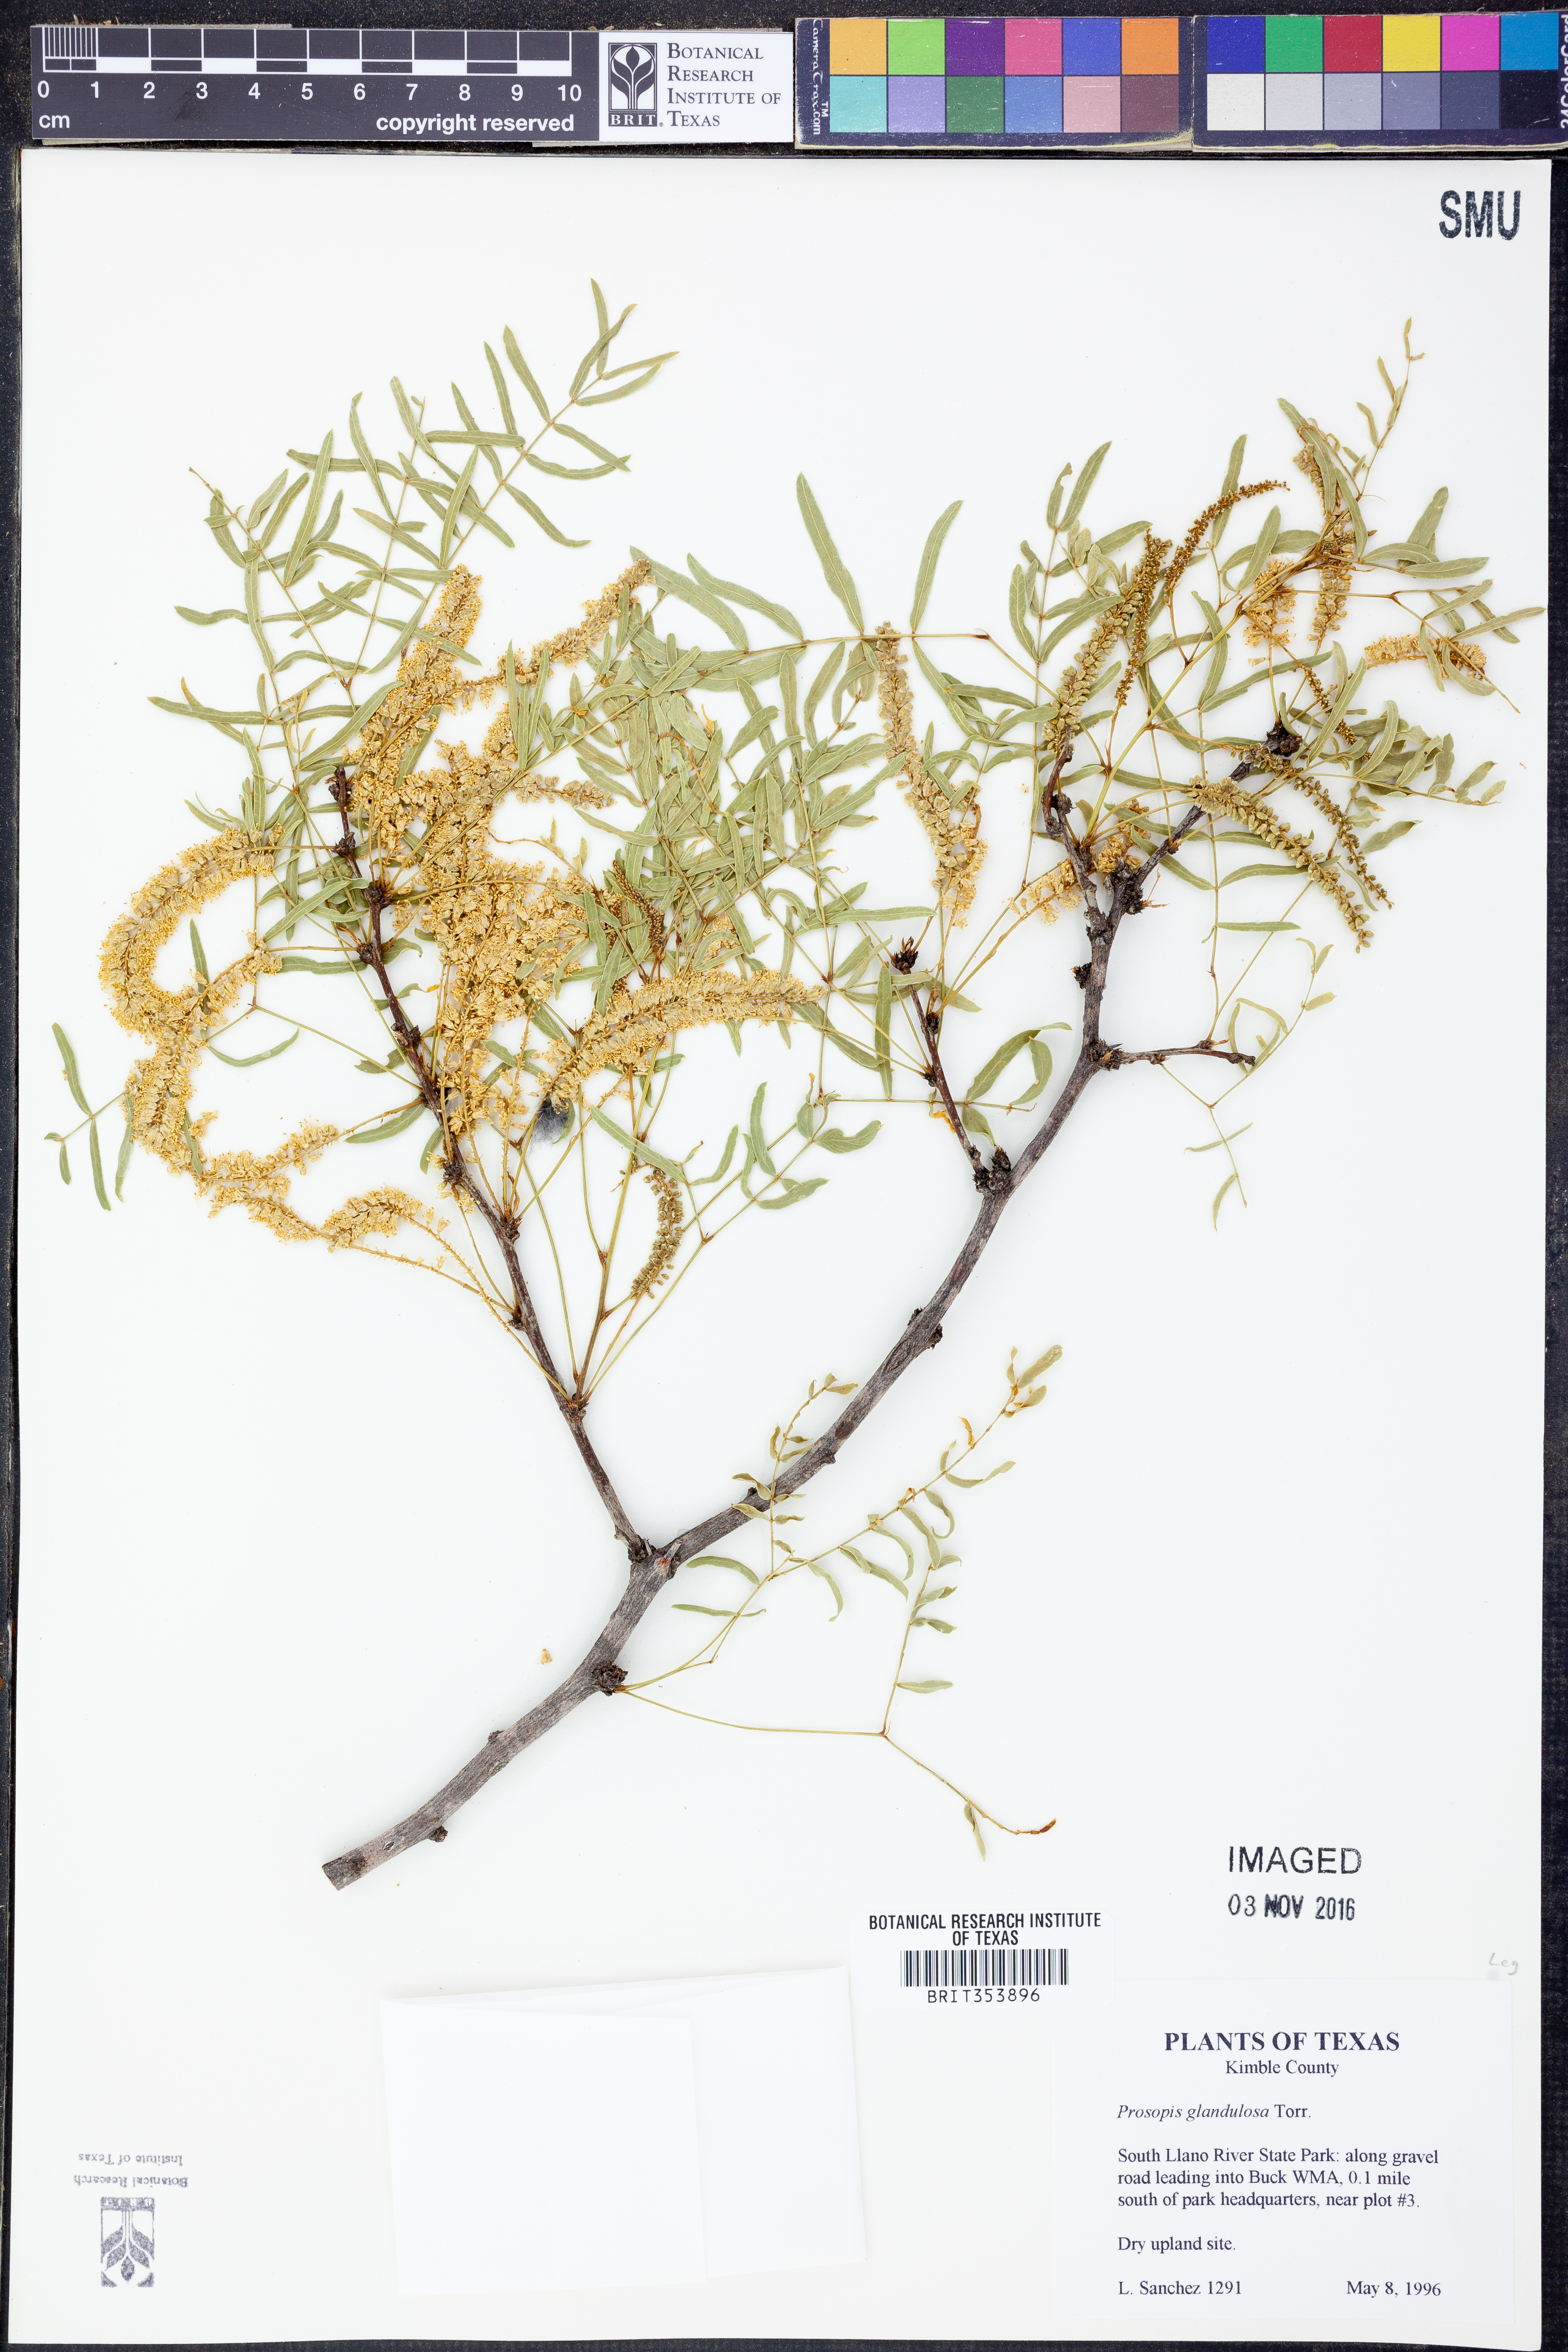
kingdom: Plantae
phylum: Tracheophyta
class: Magnoliopsida
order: Fabales
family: Fabaceae
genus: Prosopis
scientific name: Prosopis glandulosa
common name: Honey mesquite
